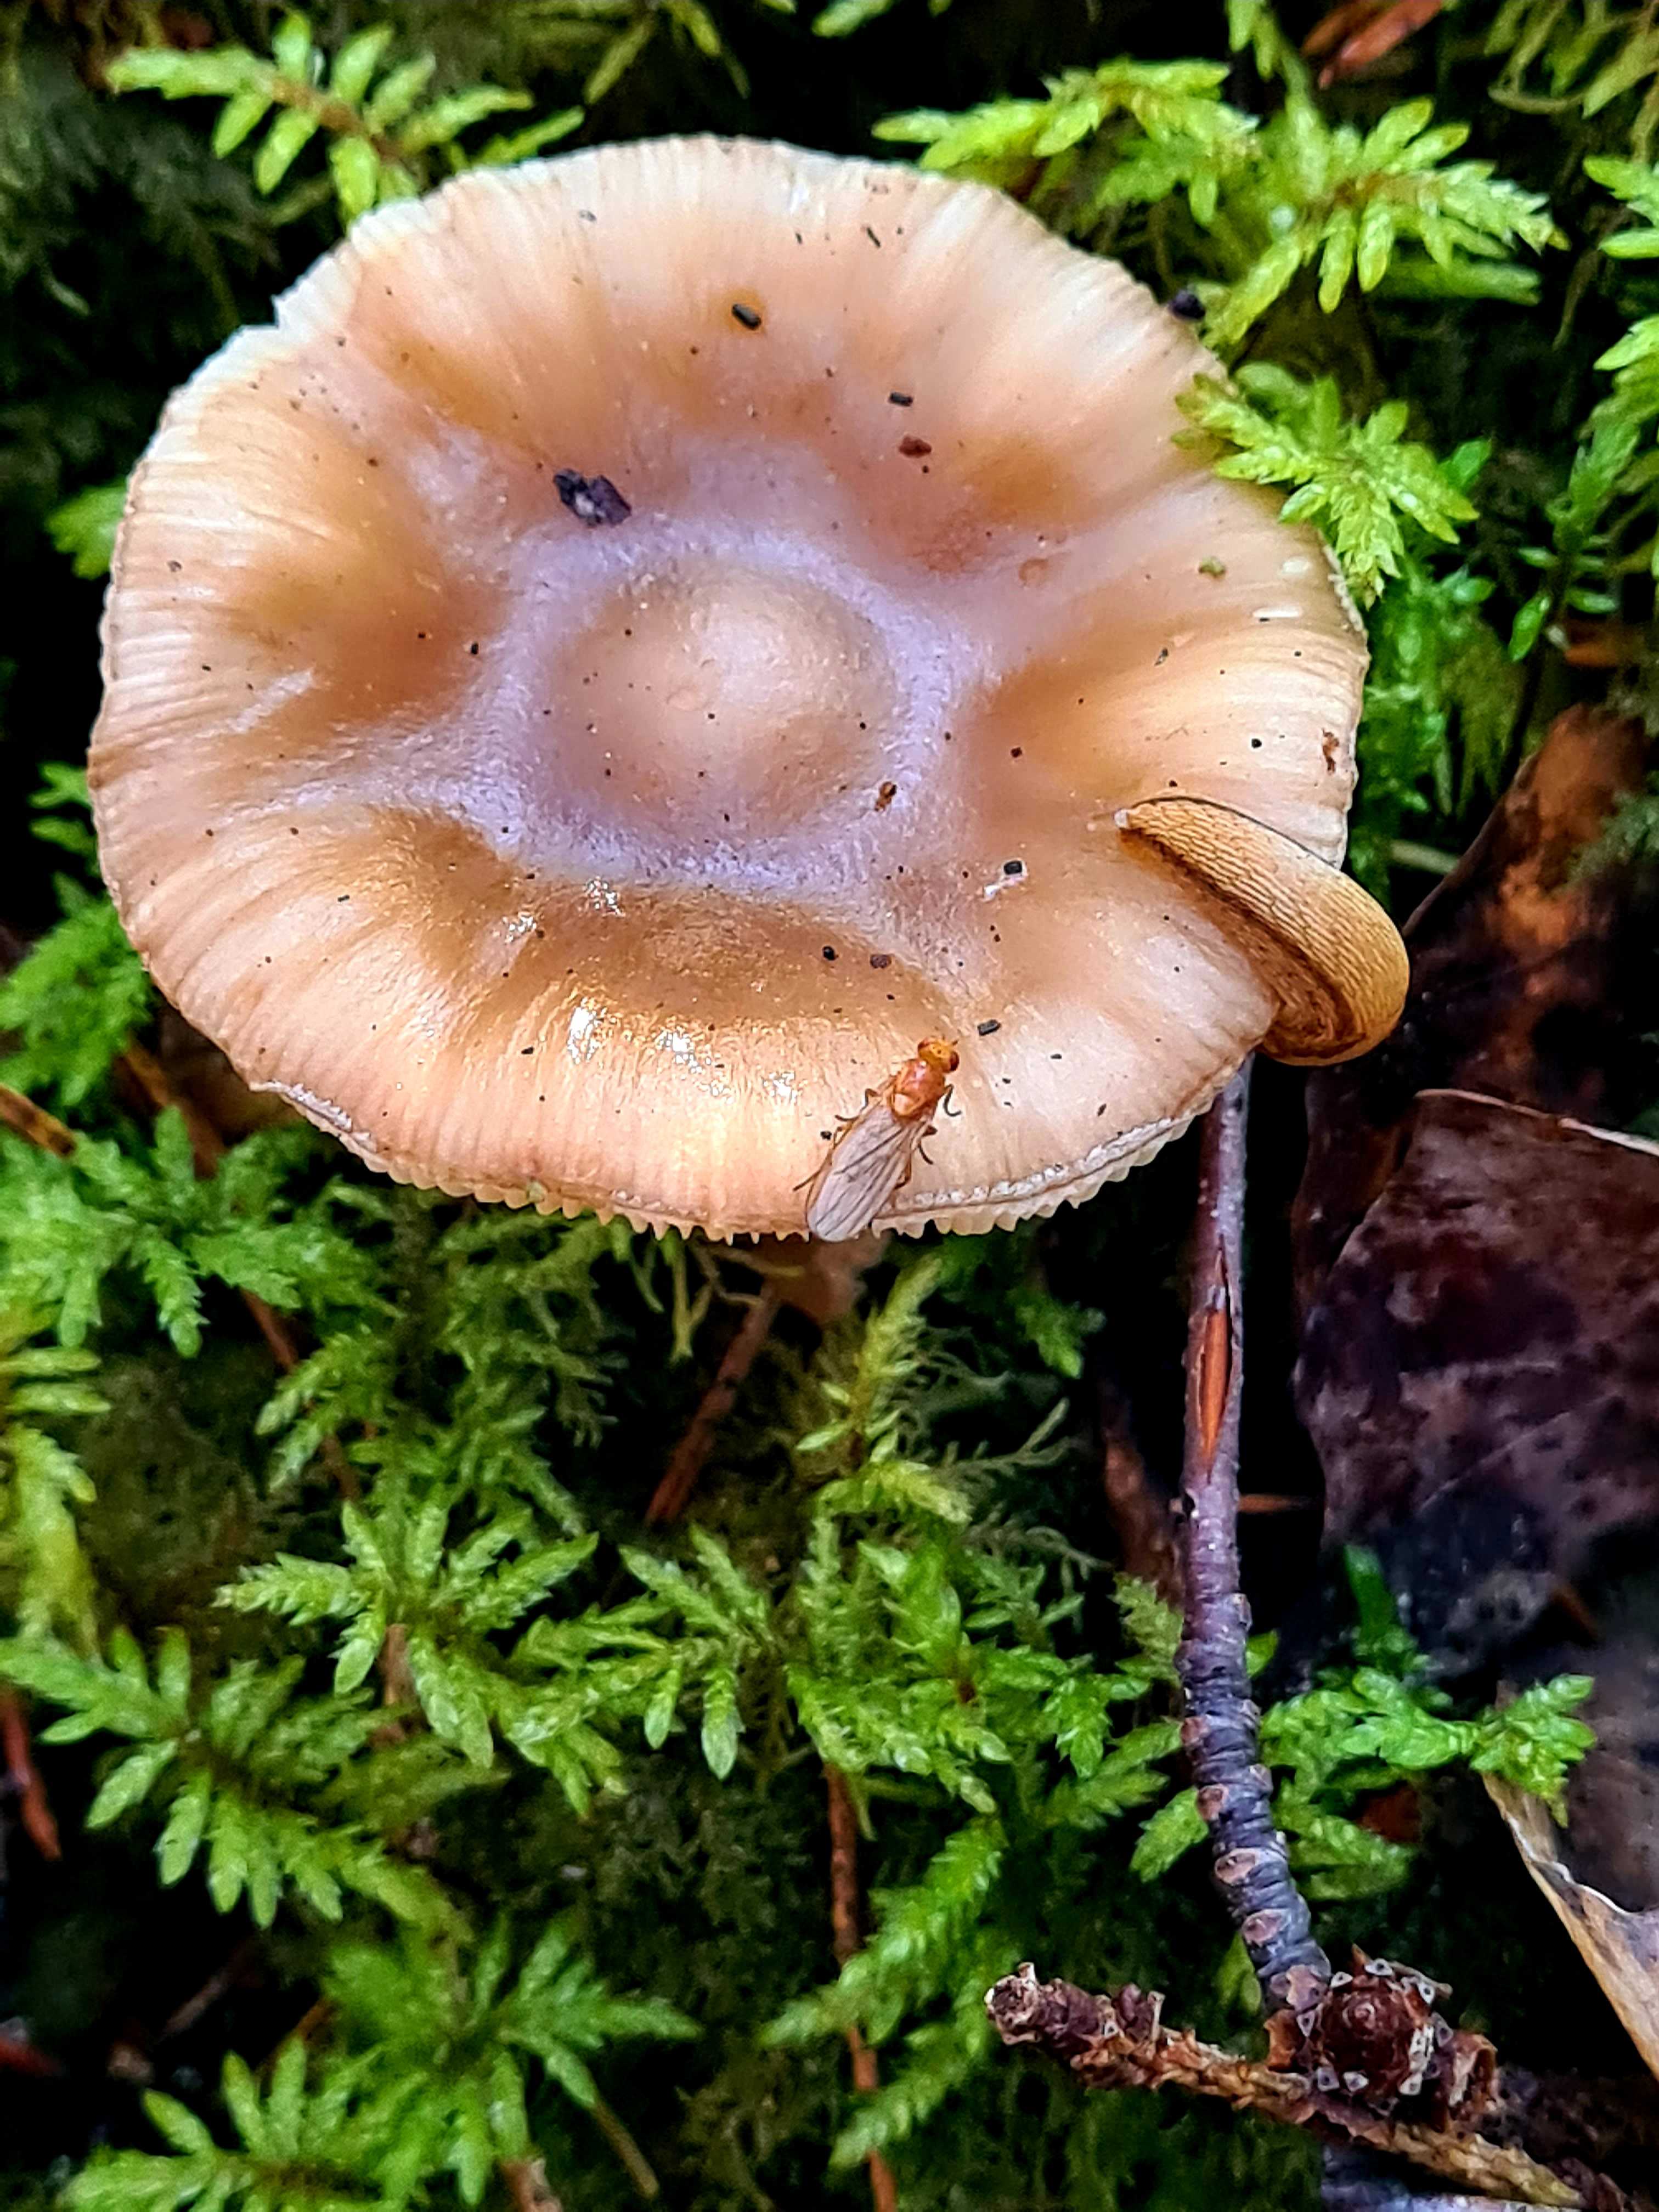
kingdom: Fungi
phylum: Basidiomycota
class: Agaricomycetes
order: Agaricales
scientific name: Agaricales
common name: champignonordenen
